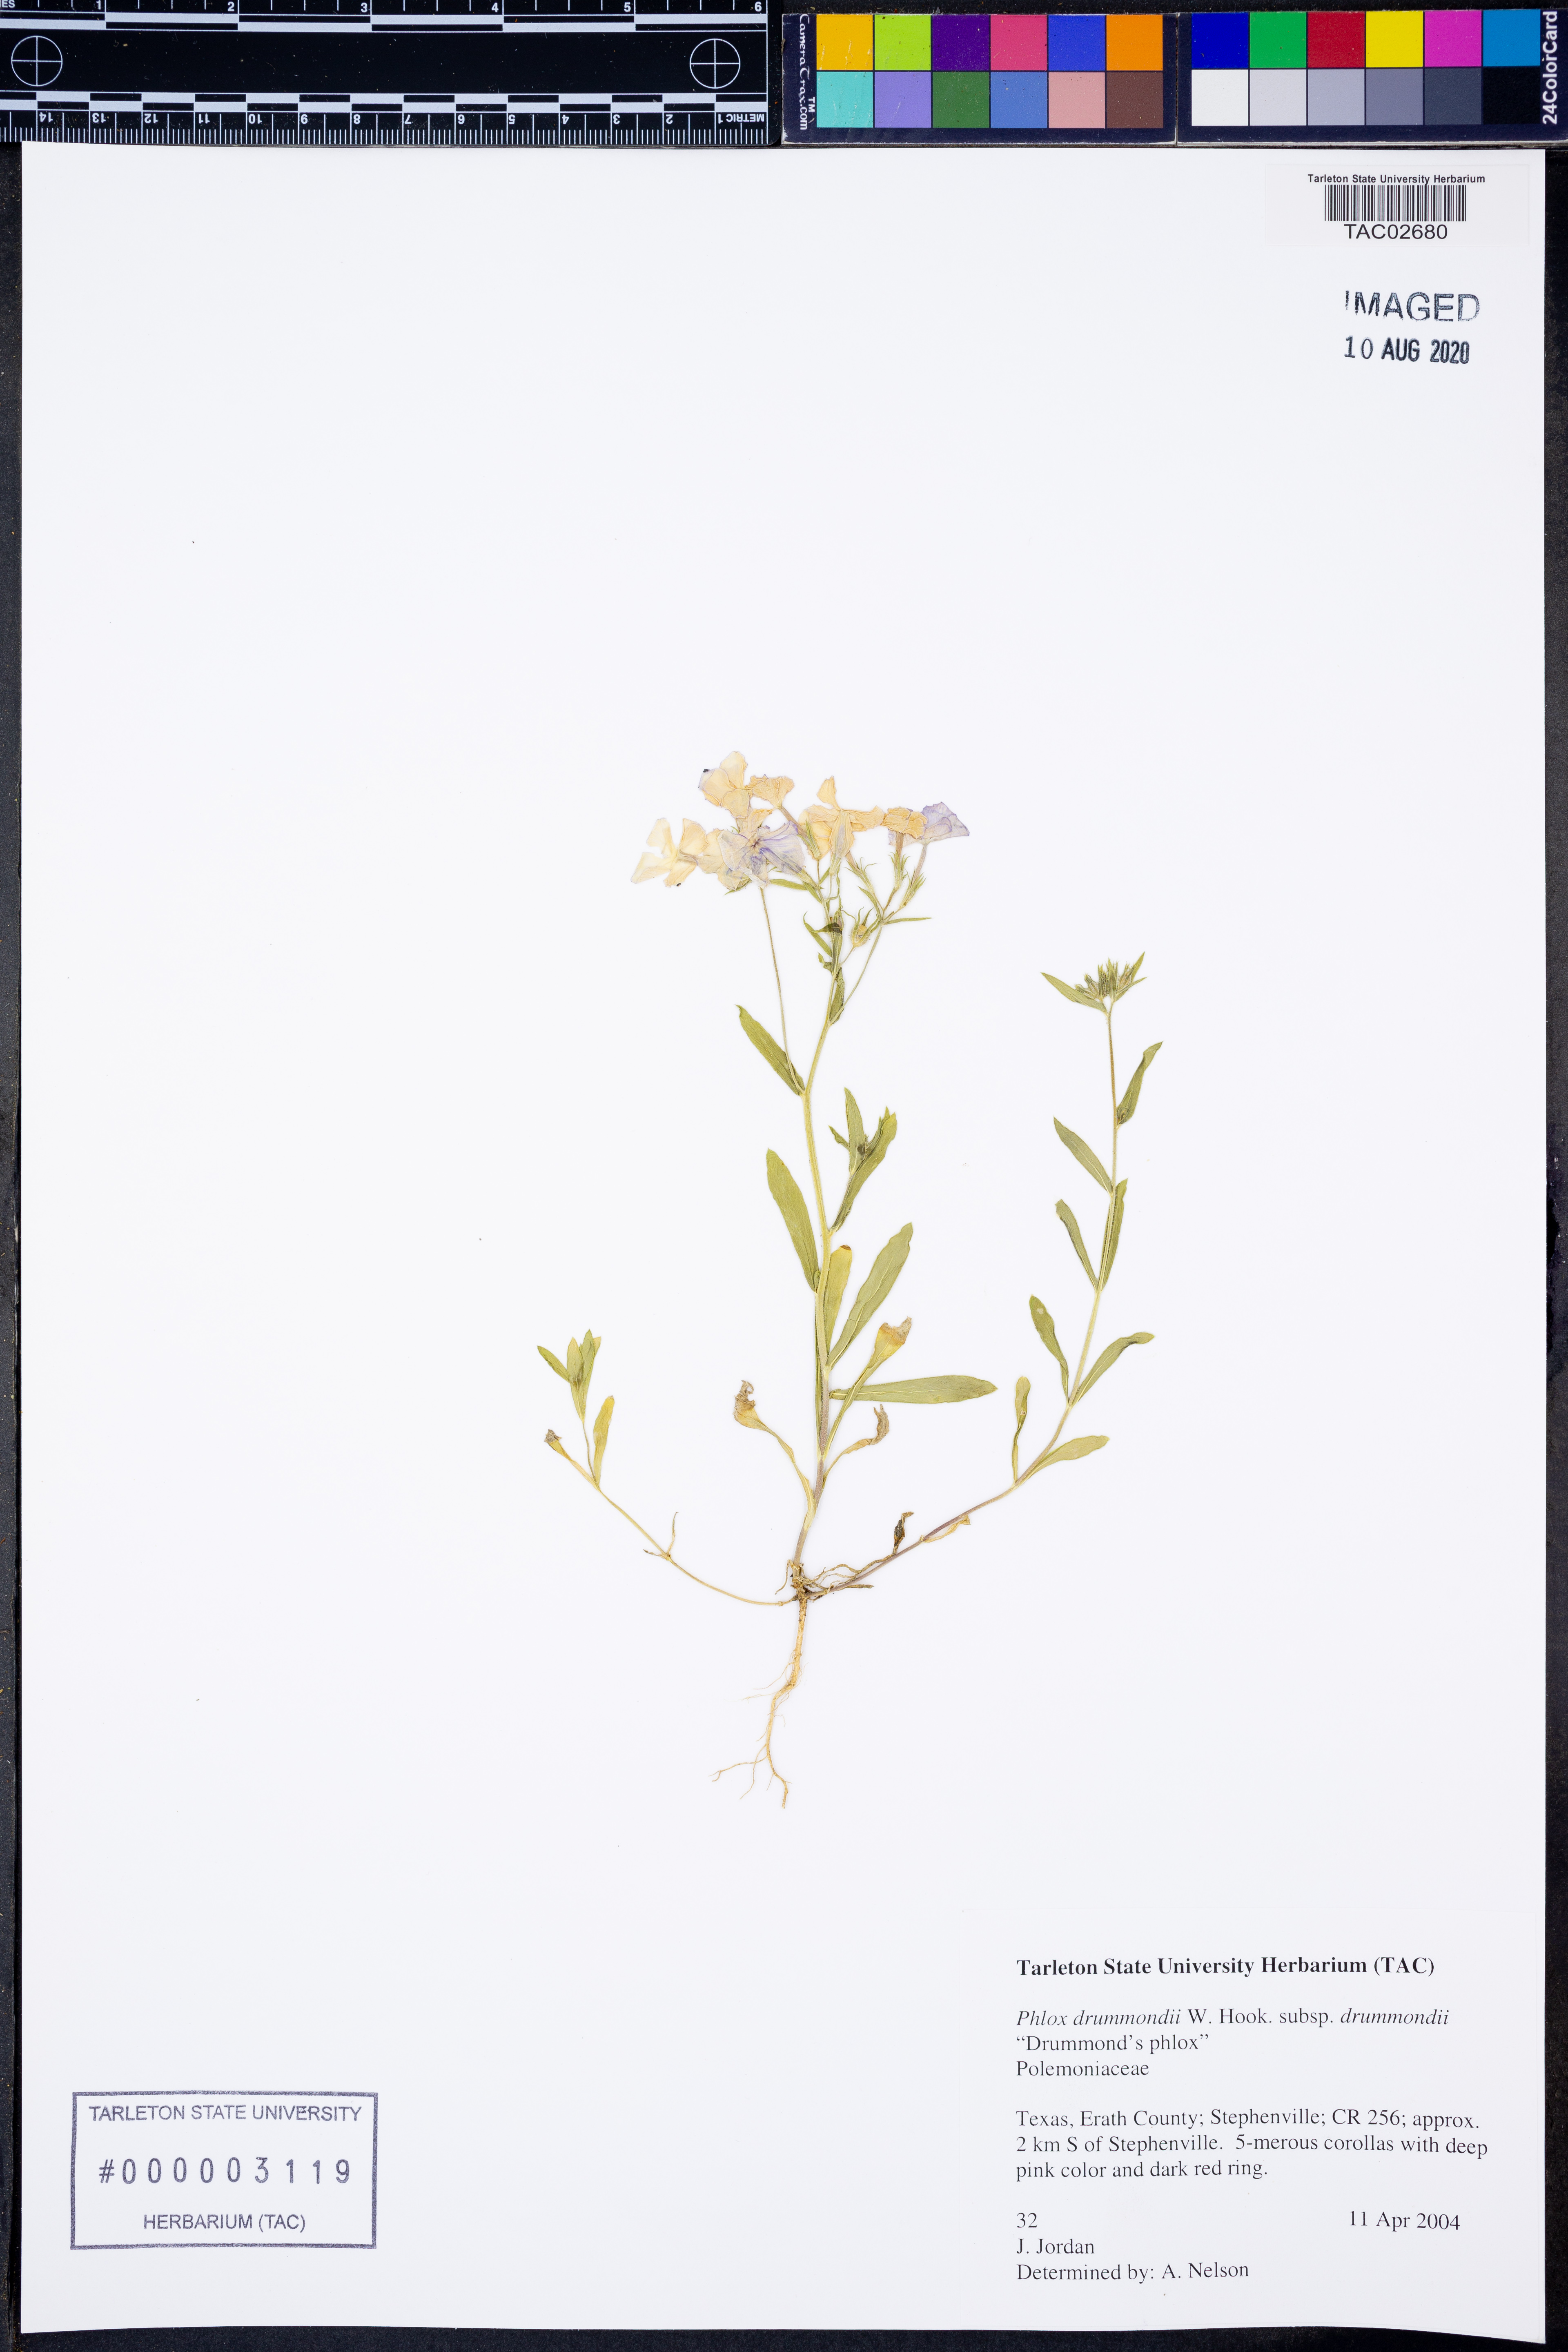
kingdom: Plantae
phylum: Tracheophyta
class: Magnoliopsida
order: Ericales
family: Polemoniaceae
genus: Phlox
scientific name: Phlox drummondii
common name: Drummond's phlox
